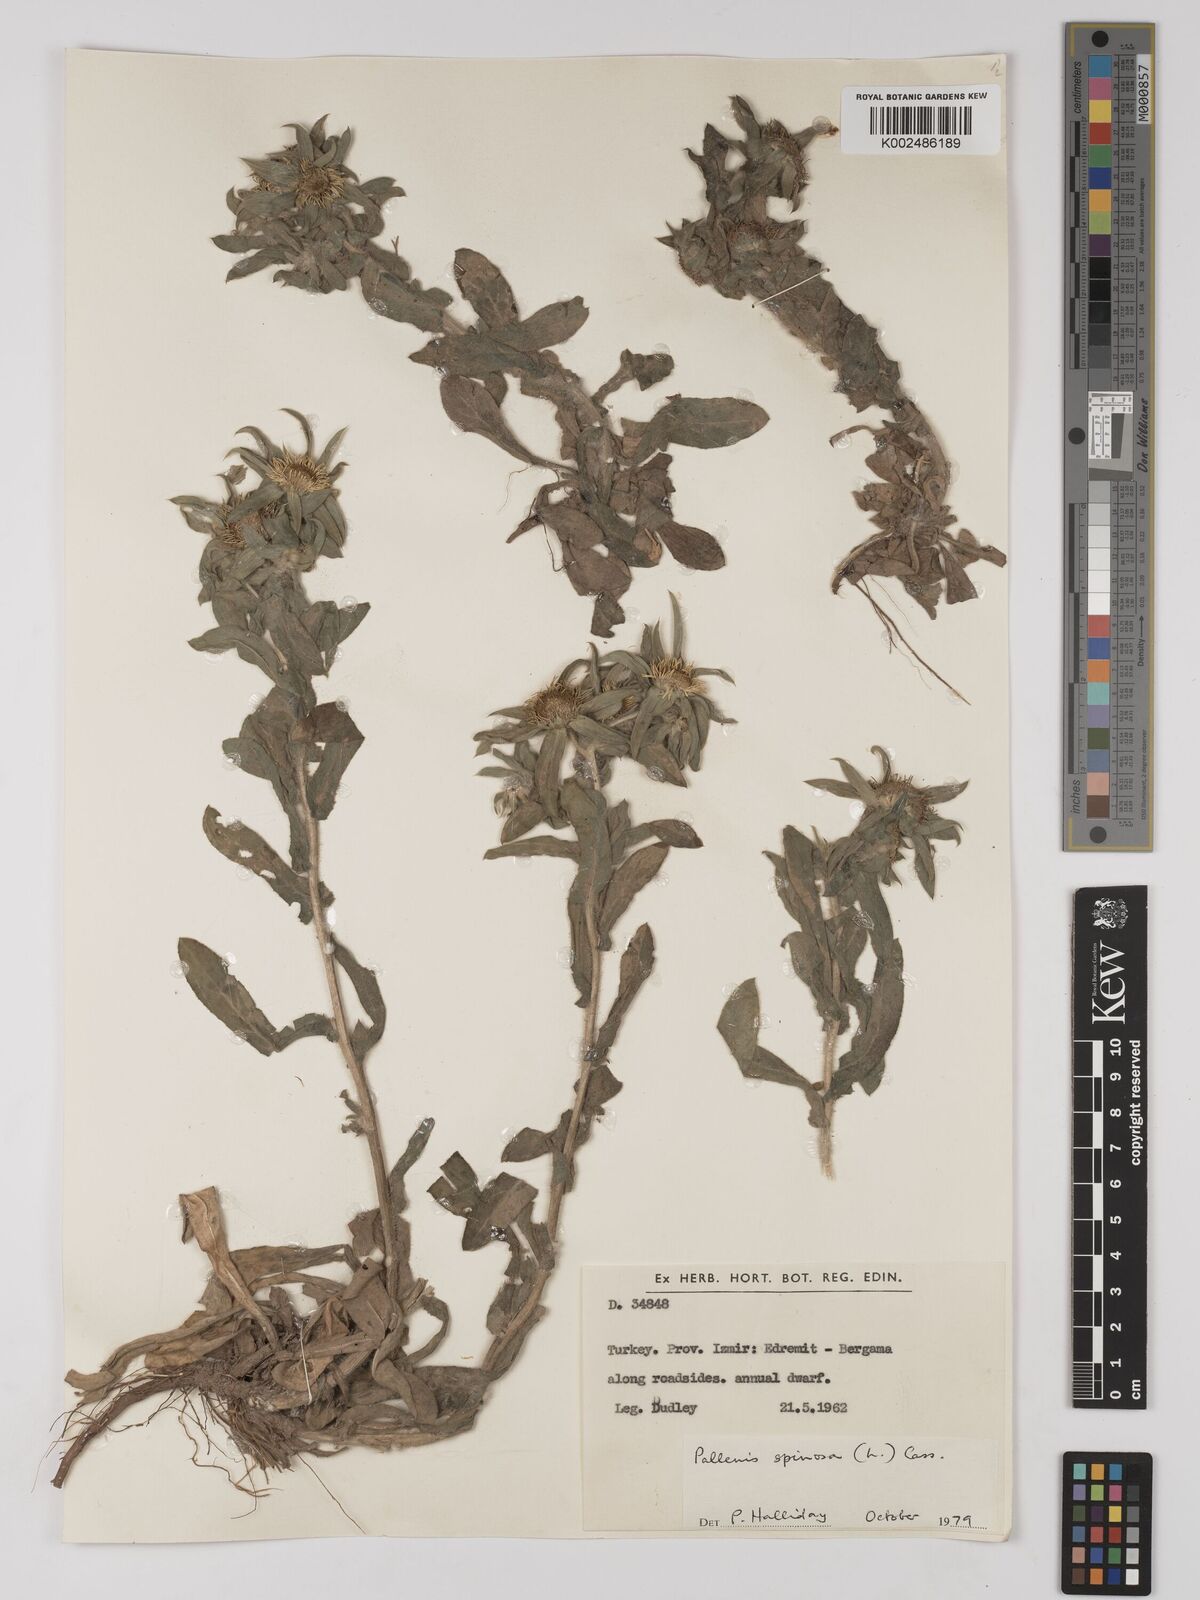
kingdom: Plantae
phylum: Tracheophyta
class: Magnoliopsida
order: Asterales
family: Asteraceae
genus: Pallenis
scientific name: Pallenis spinosa
